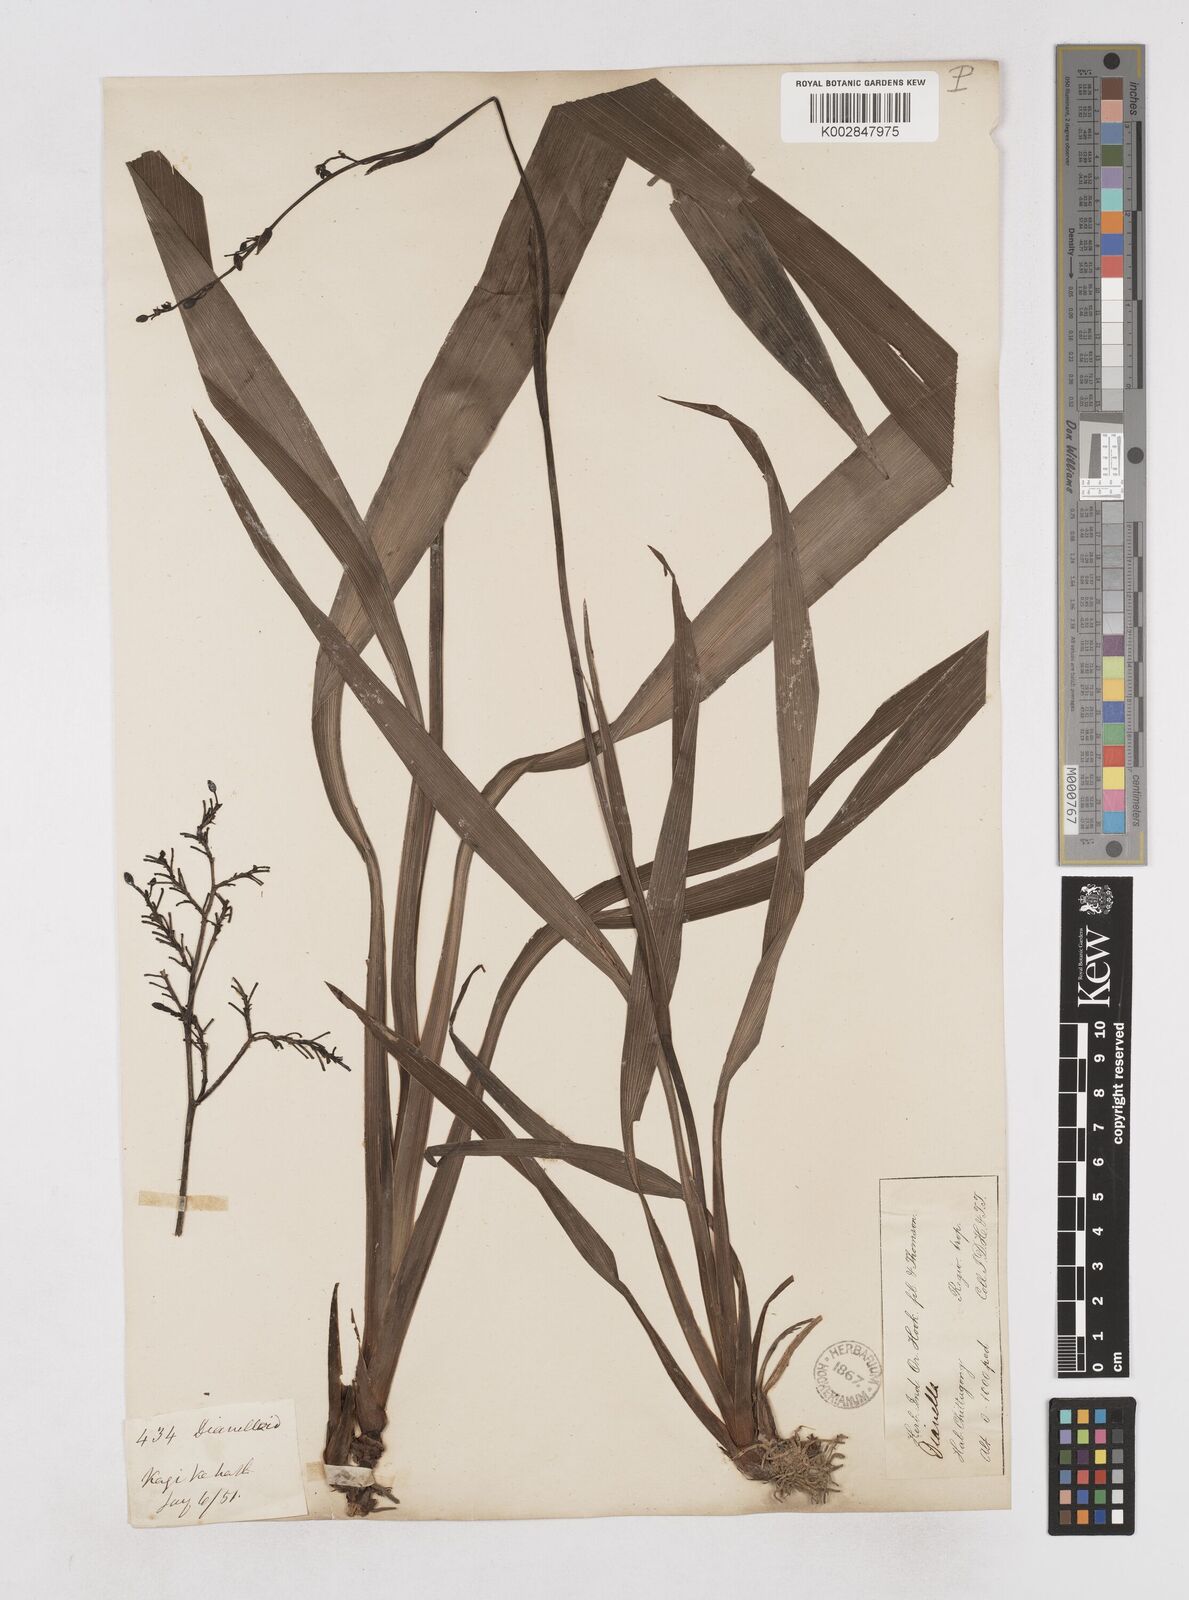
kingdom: Plantae
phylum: Tracheophyta
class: Liliopsida
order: Asparagales
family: Asphodelaceae
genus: Dianella
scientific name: Dianella ensifolia
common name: New zealand lilyplant
